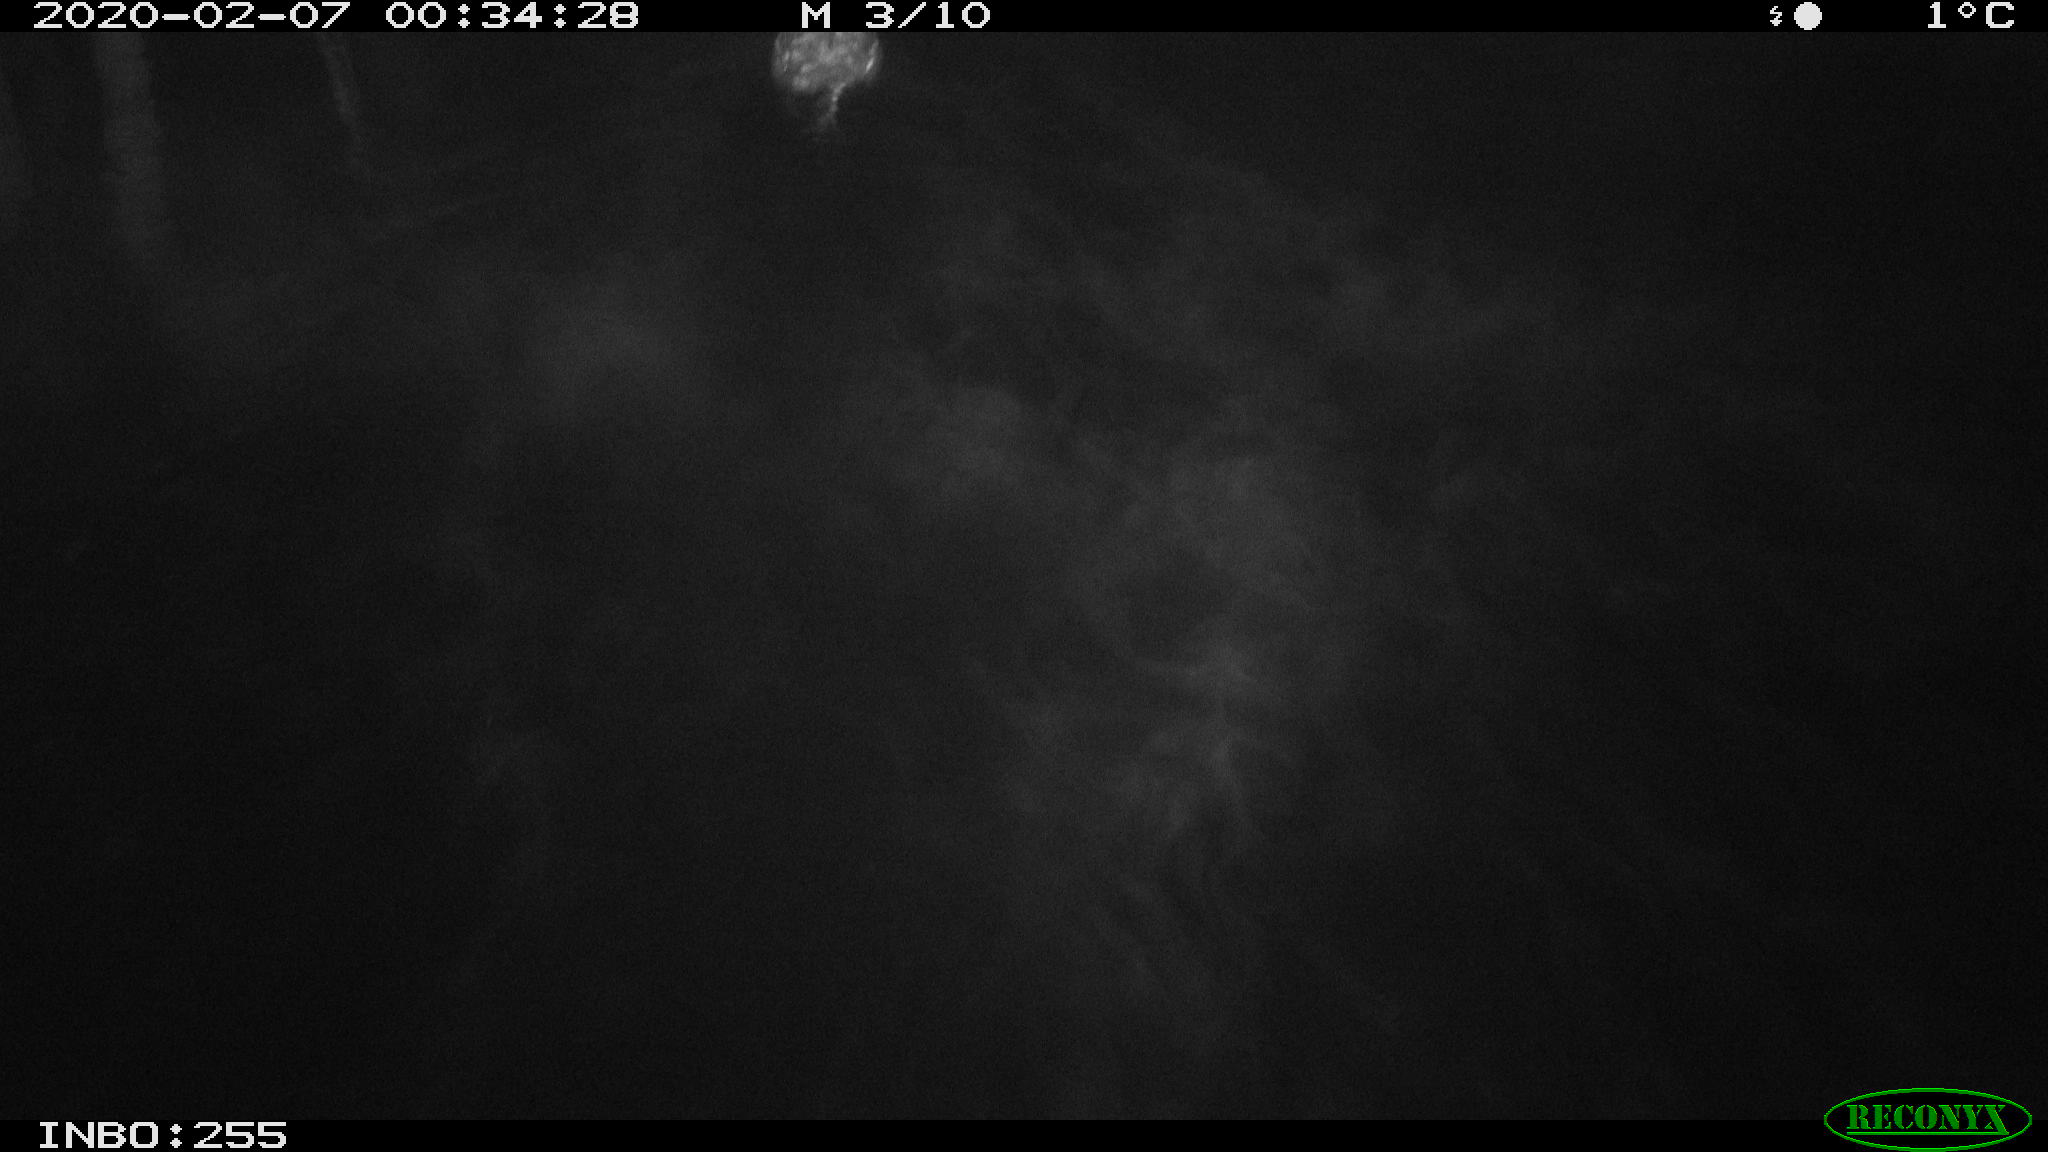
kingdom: Animalia
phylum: Chordata
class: Aves
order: Gruiformes
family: Rallidae
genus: Gallinula
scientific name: Gallinula chloropus
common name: Common moorhen
